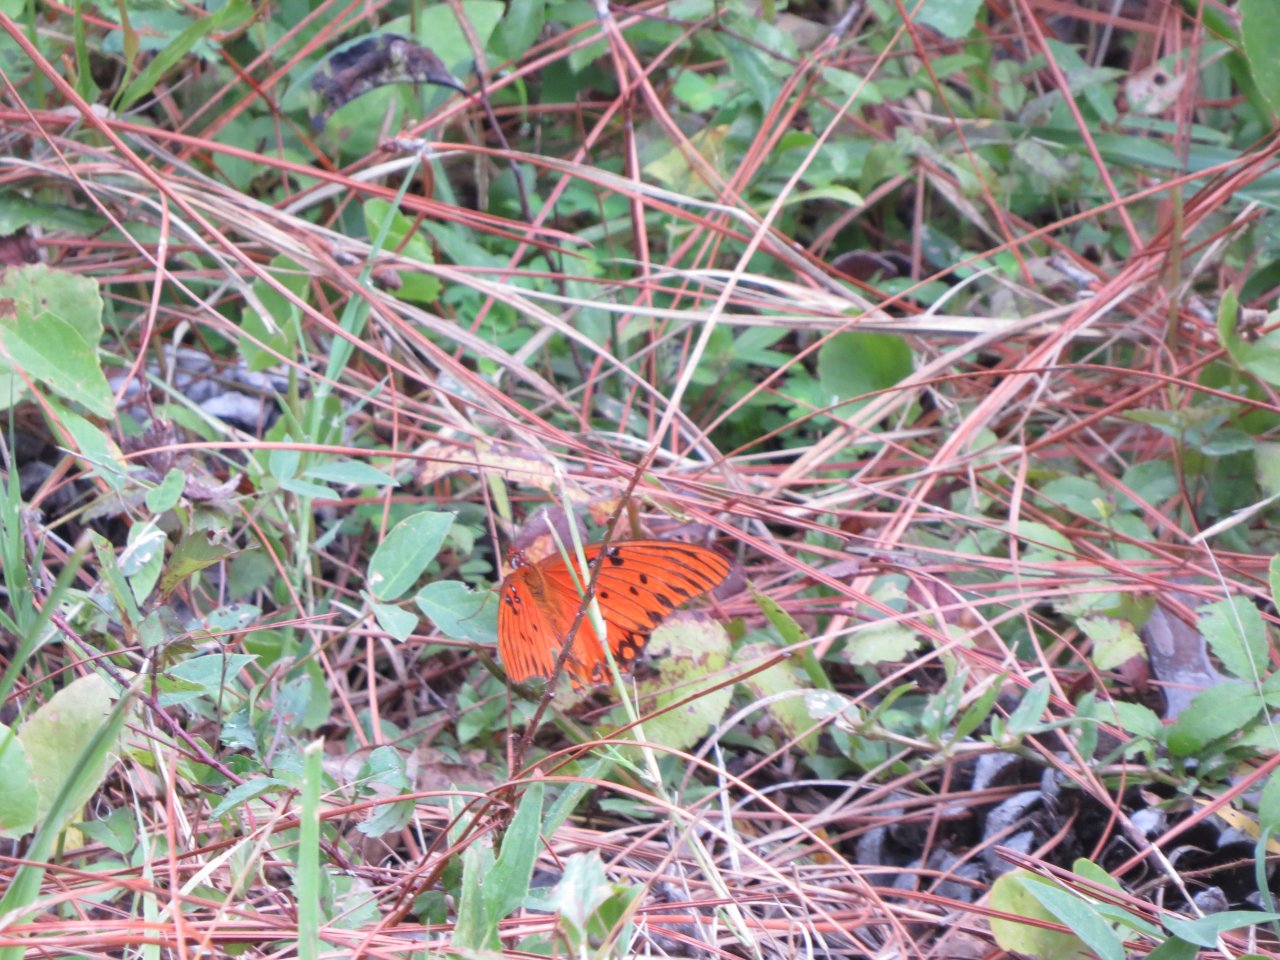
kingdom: Animalia
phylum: Arthropoda
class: Insecta
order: Lepidoptera
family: Nymphalidae
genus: Dione
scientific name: Dione vanillae
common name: Gulf Fritillary
